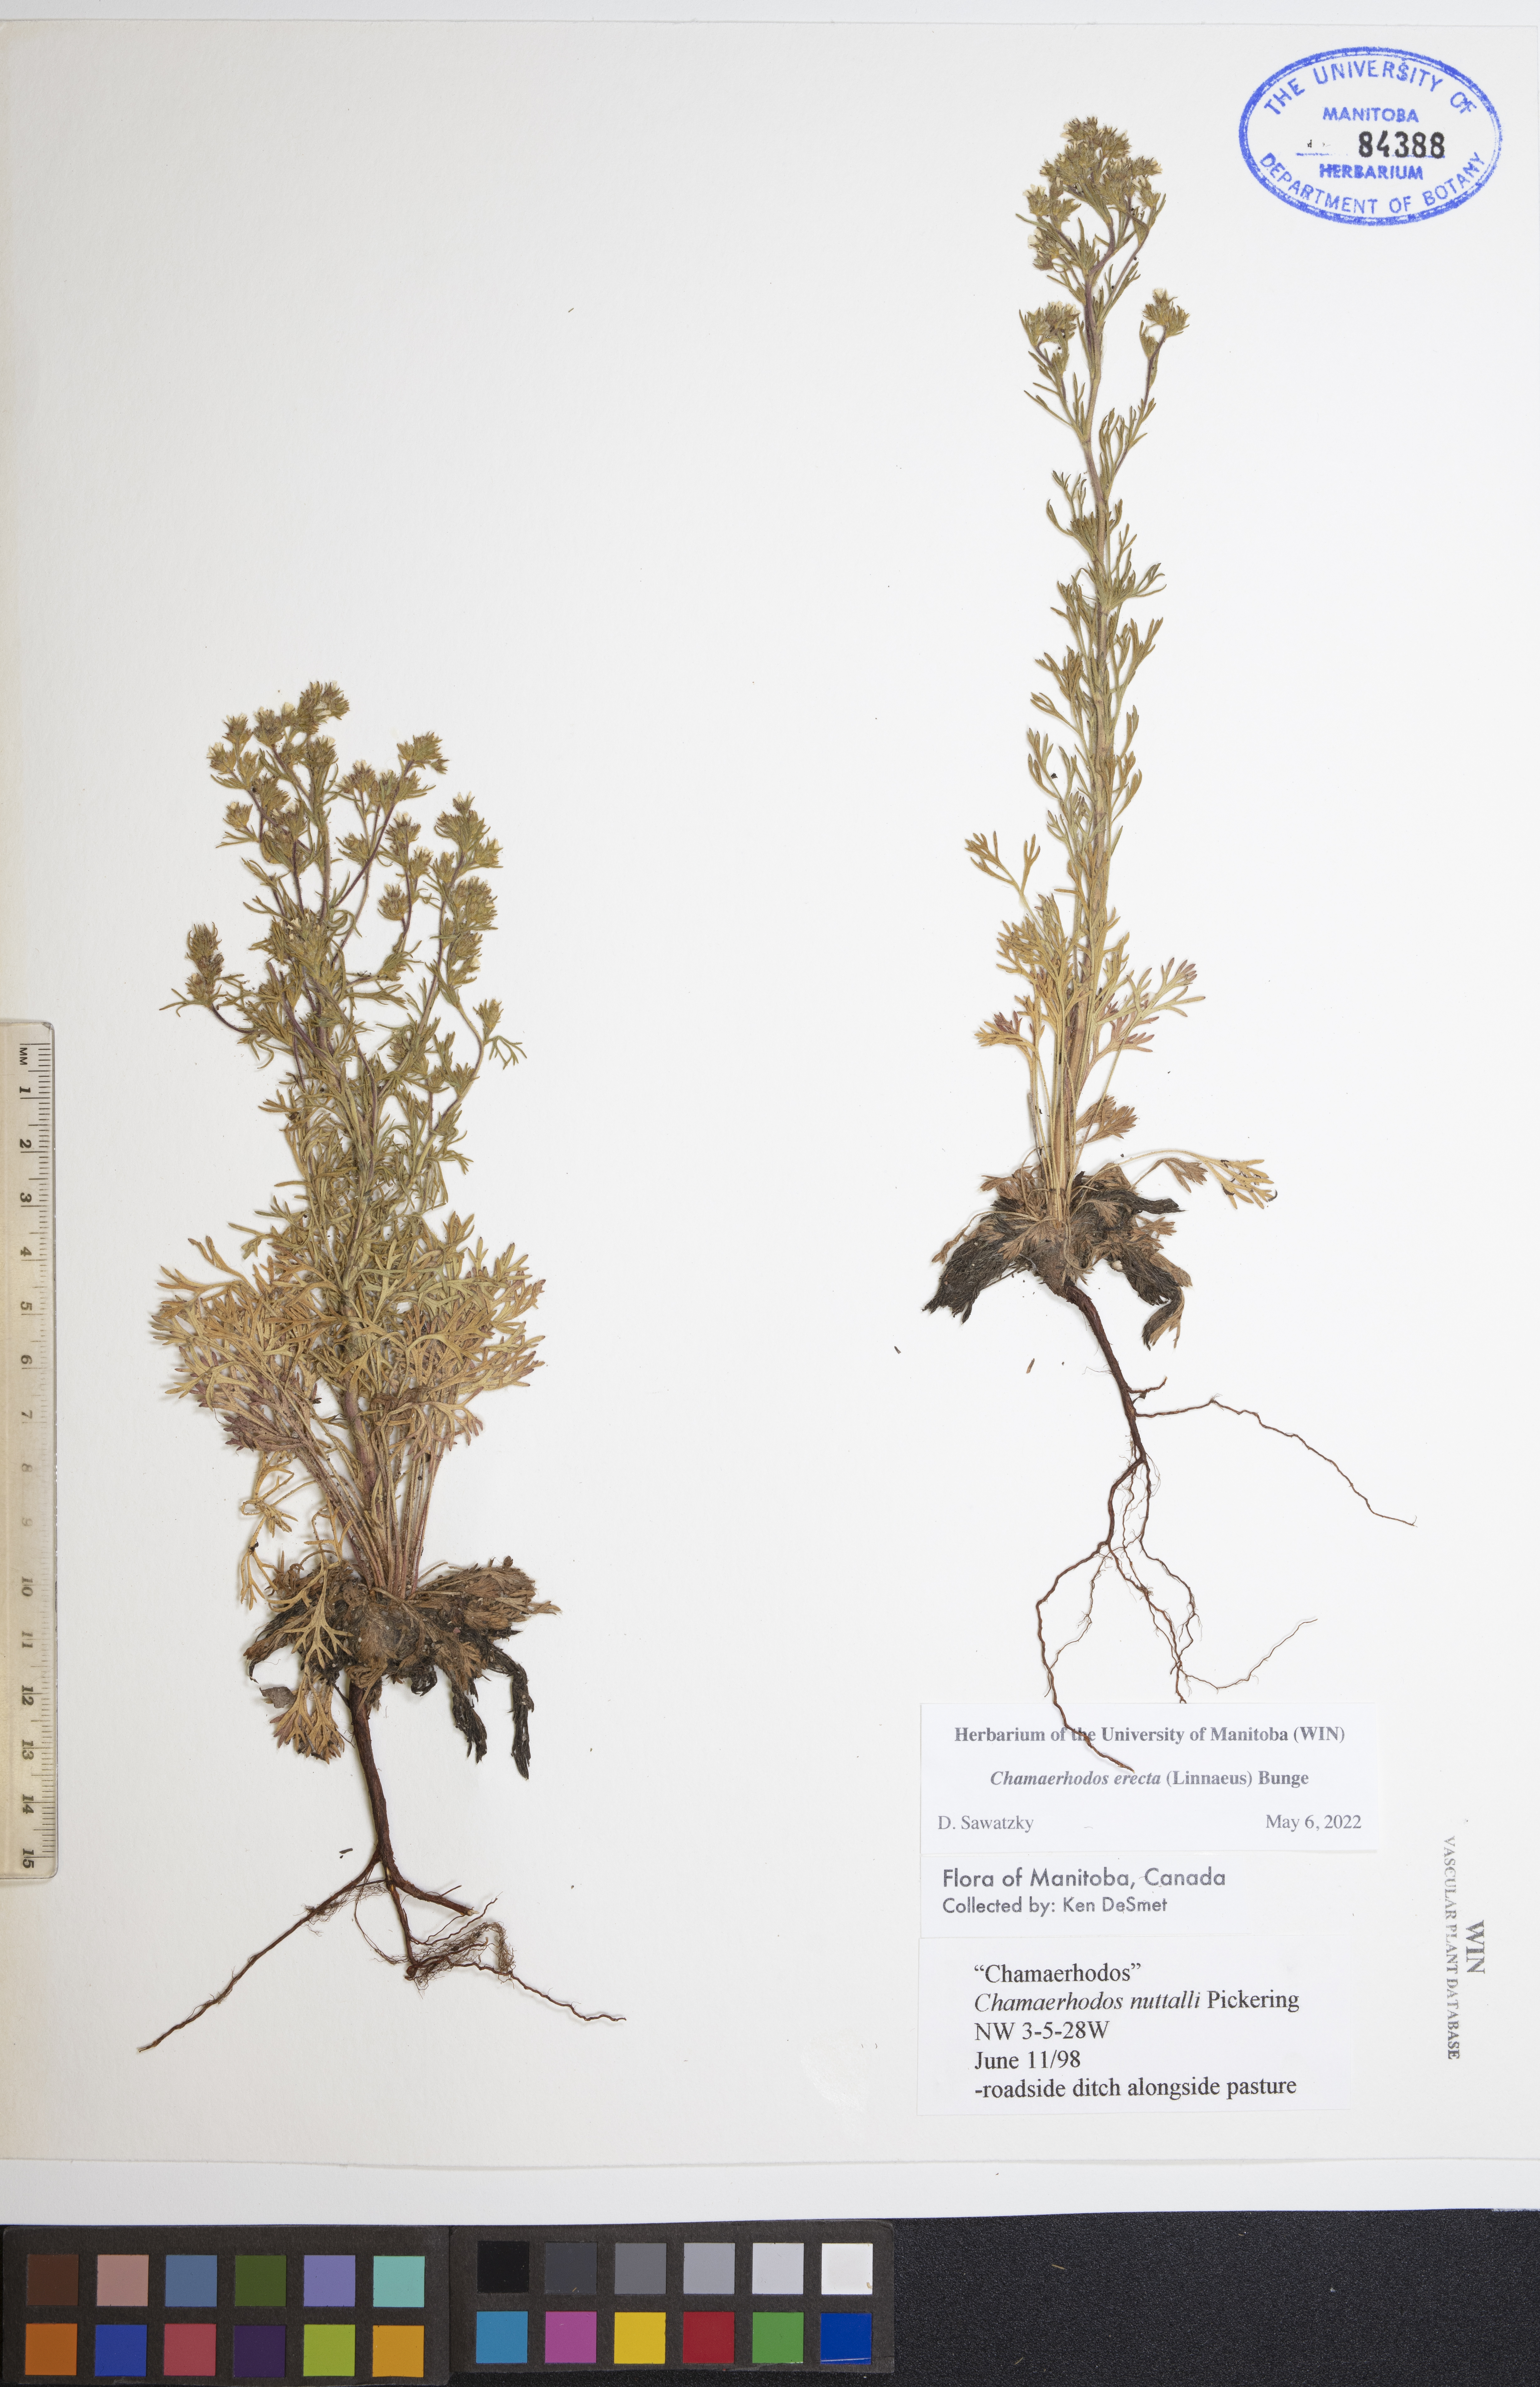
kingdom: Plantae
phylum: Tracheophyta
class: Magnoliopsida
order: Rosales
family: Rosaceae
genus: Chamaerhodos
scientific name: Chamaerhodos erecta
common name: American chamaerhodos
